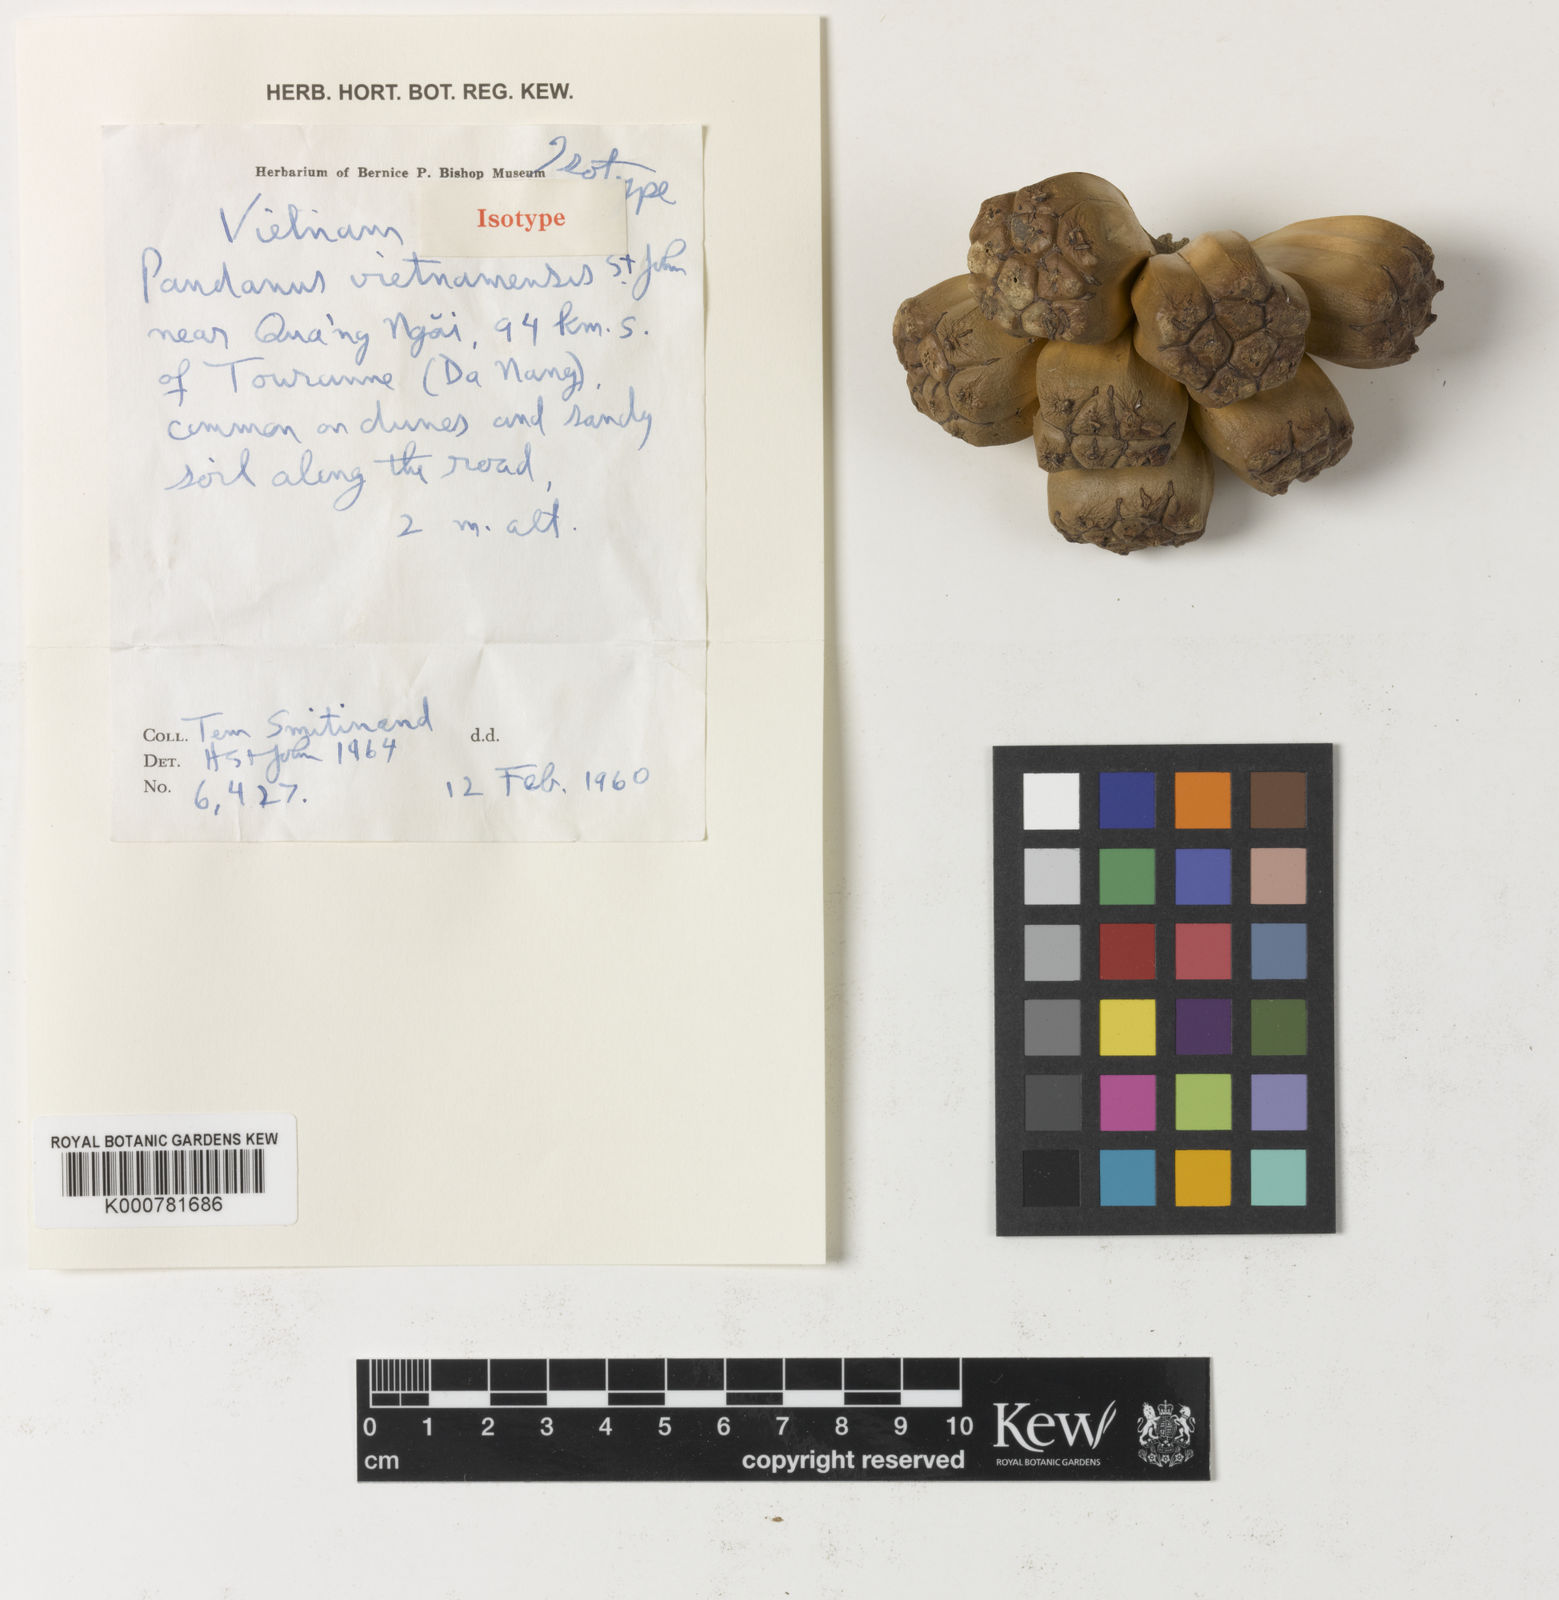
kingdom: Plantae
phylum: Tracheophyta
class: Liliopsida
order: Pandanales
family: Pandanaceae
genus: Pandanus
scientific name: Pandanus odorifer
